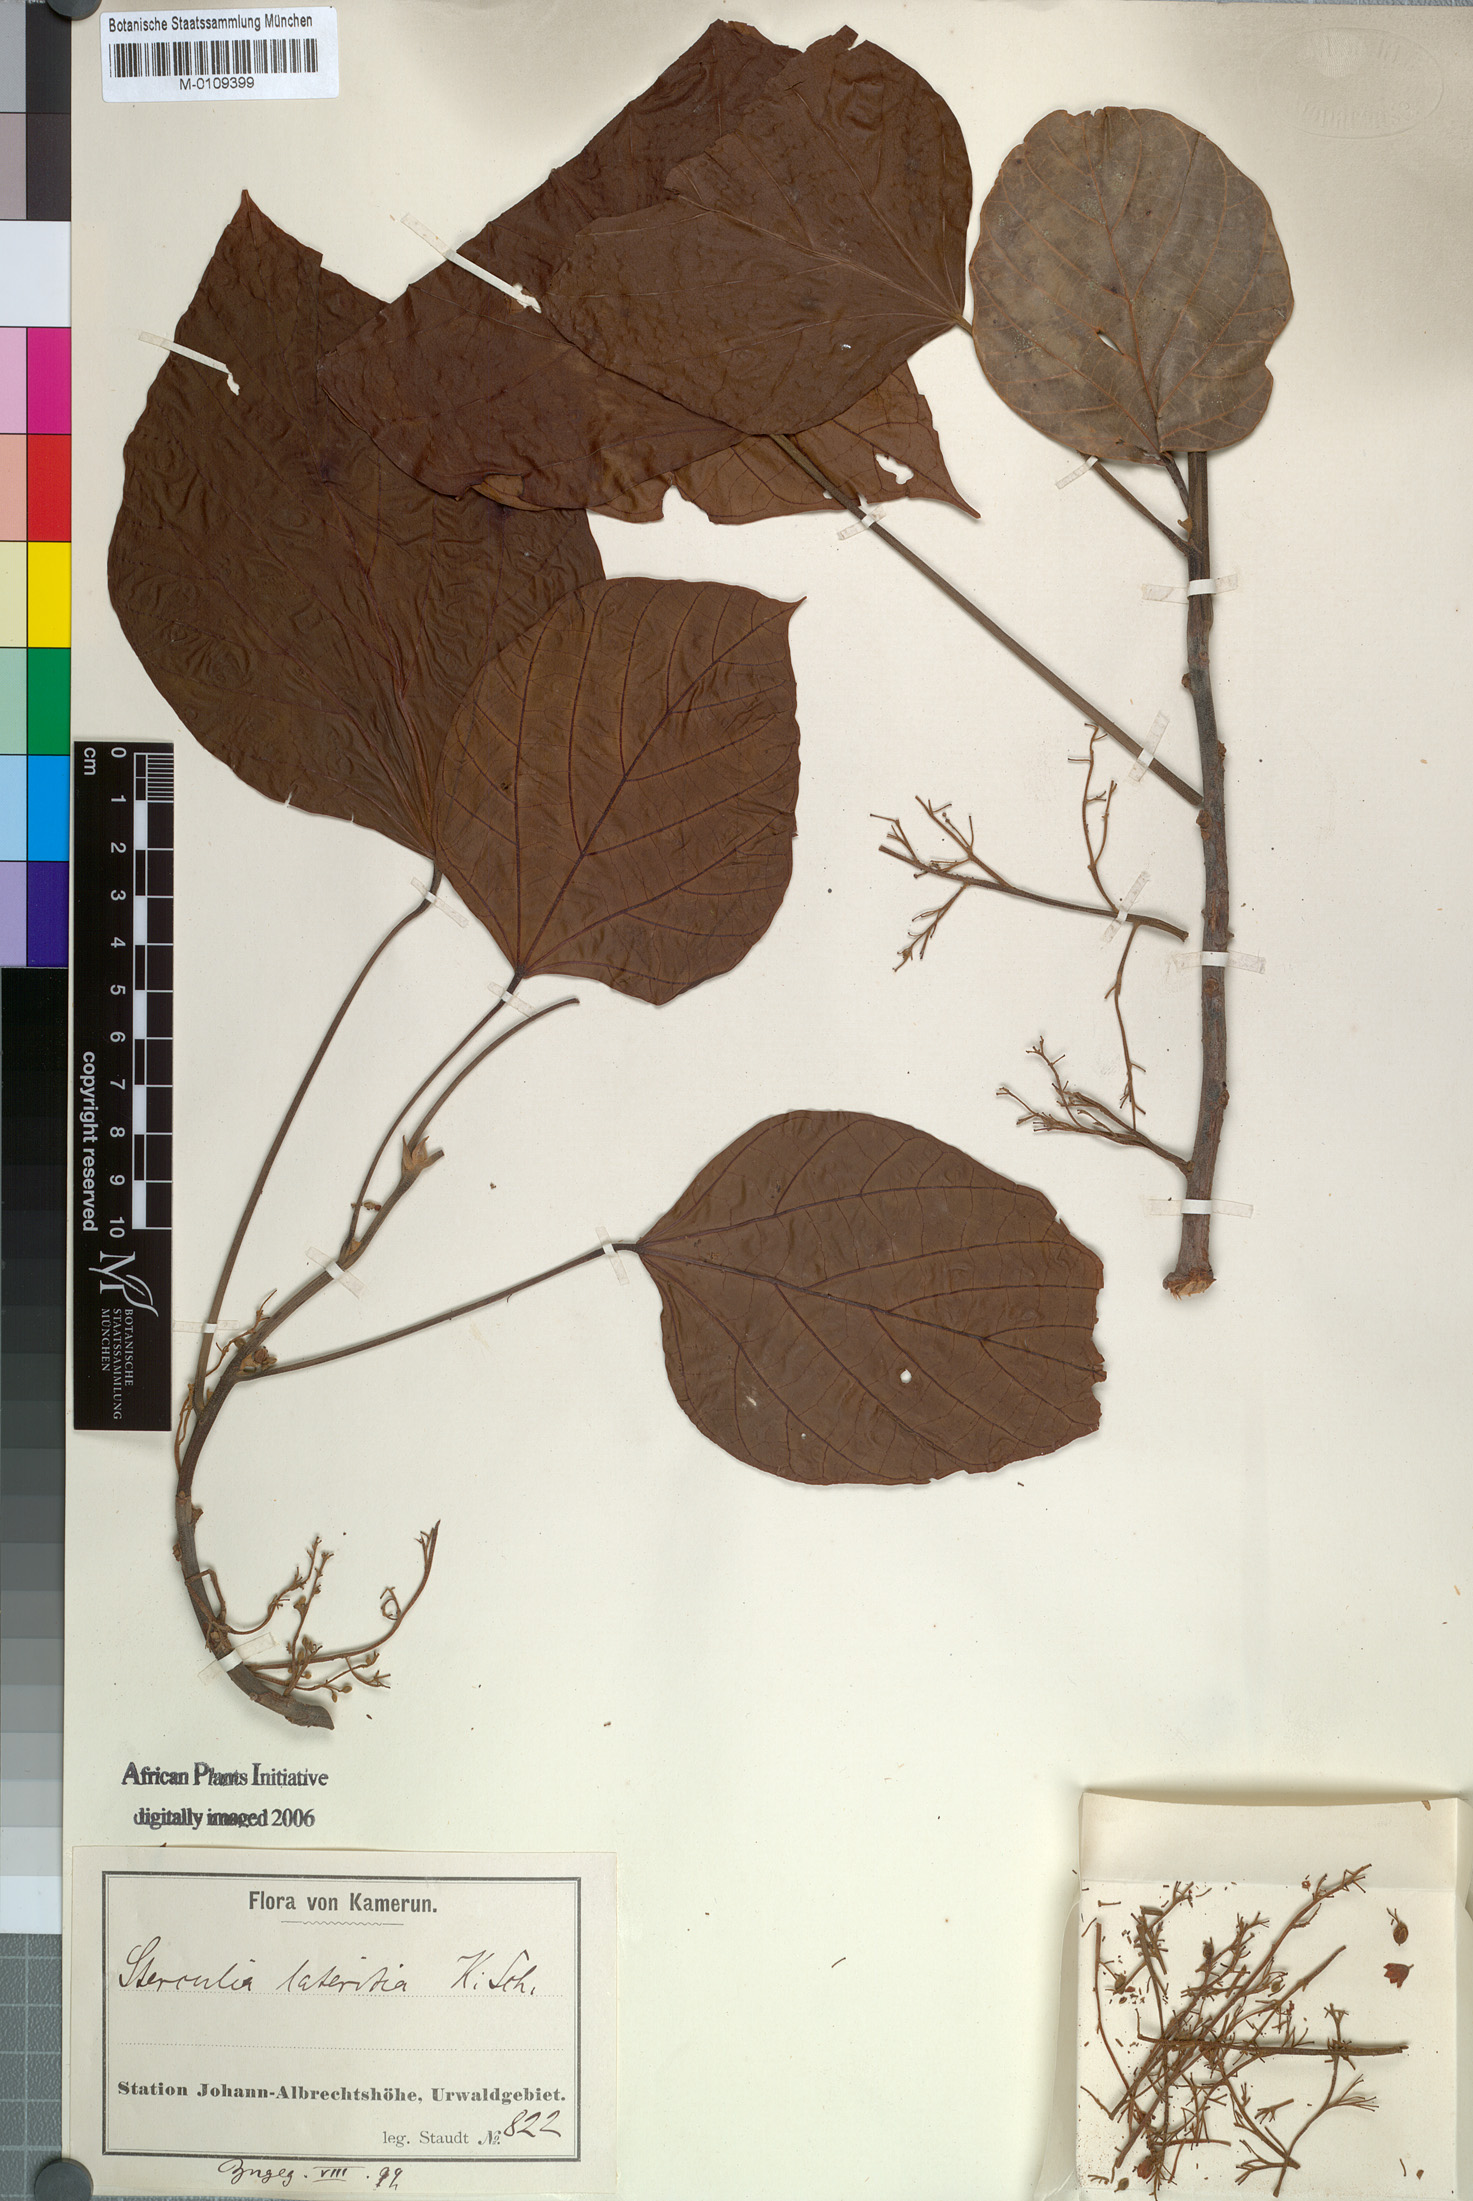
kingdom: Plantae
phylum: Tracheophyta
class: Magnoliopsida
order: Malvales
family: Malvaceae
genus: Cola
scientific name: Cola lateritia
